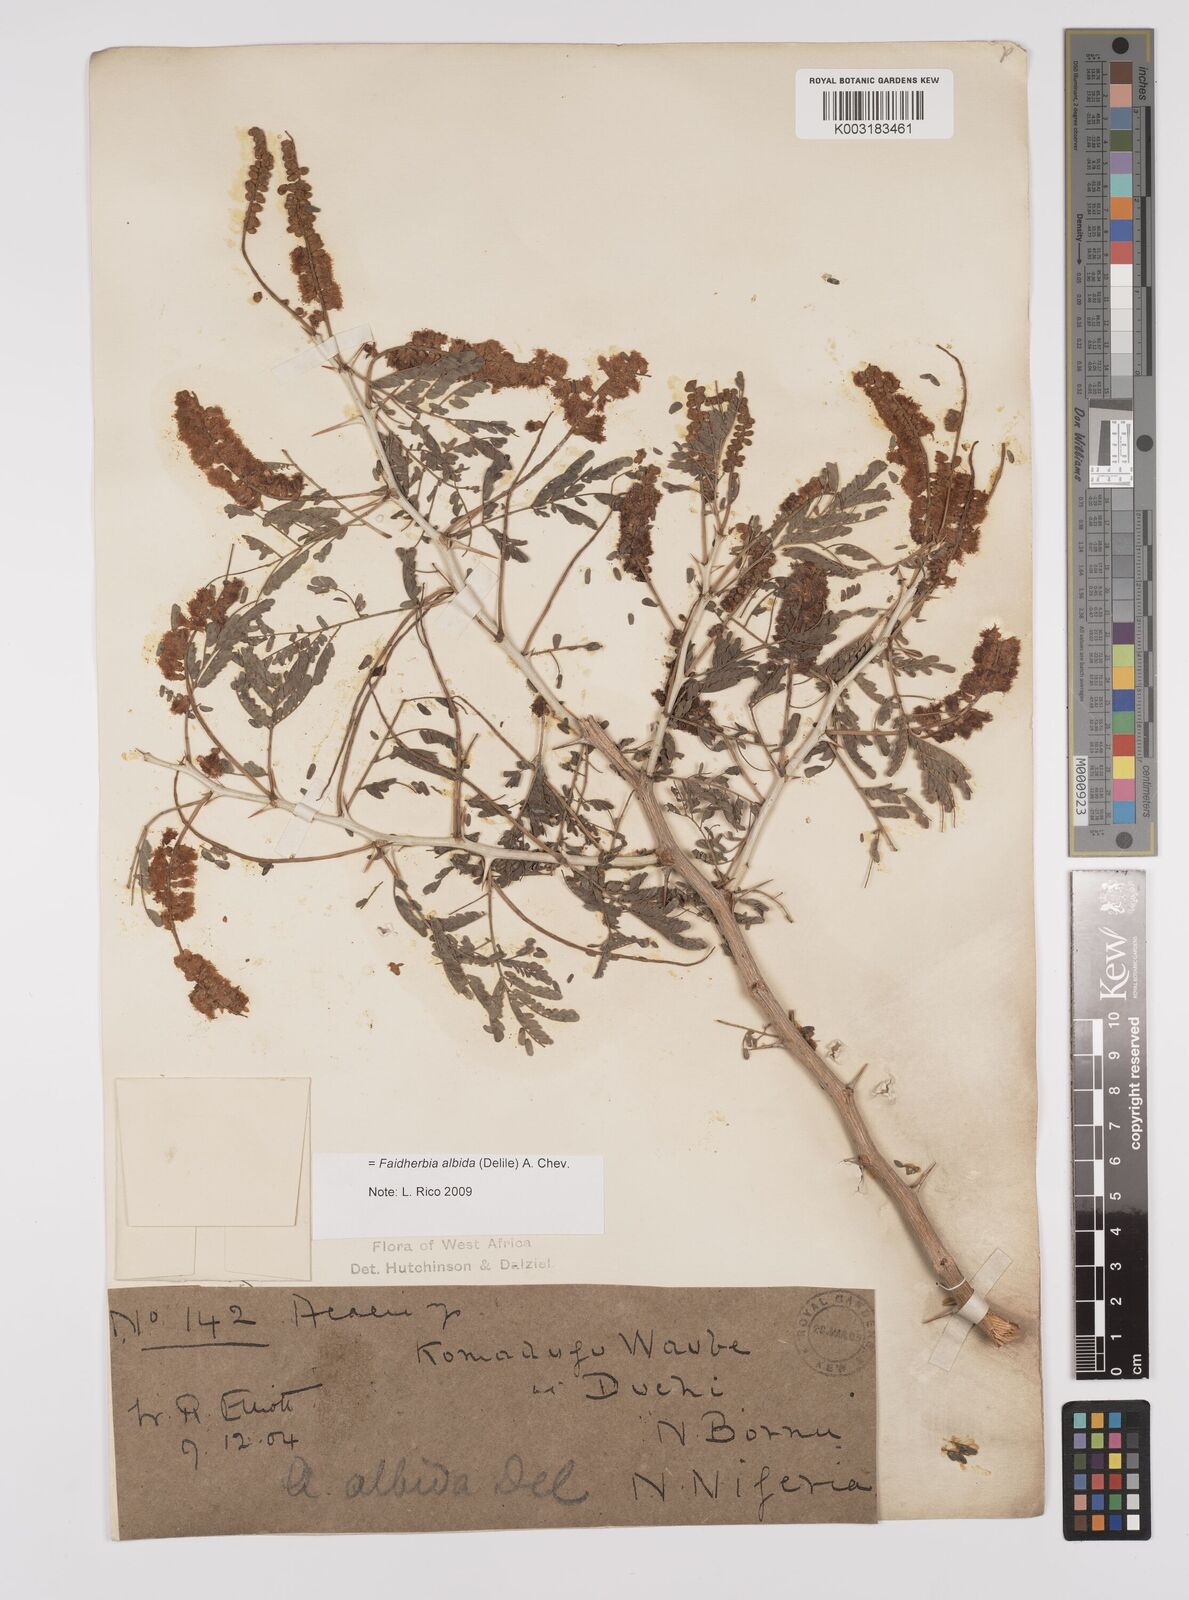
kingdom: Plantae
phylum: Tracheophyta
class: Magnoliopsida
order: Fabales
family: Fabaceae
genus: Faidherbia
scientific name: Faidherbia albida
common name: Anatree
